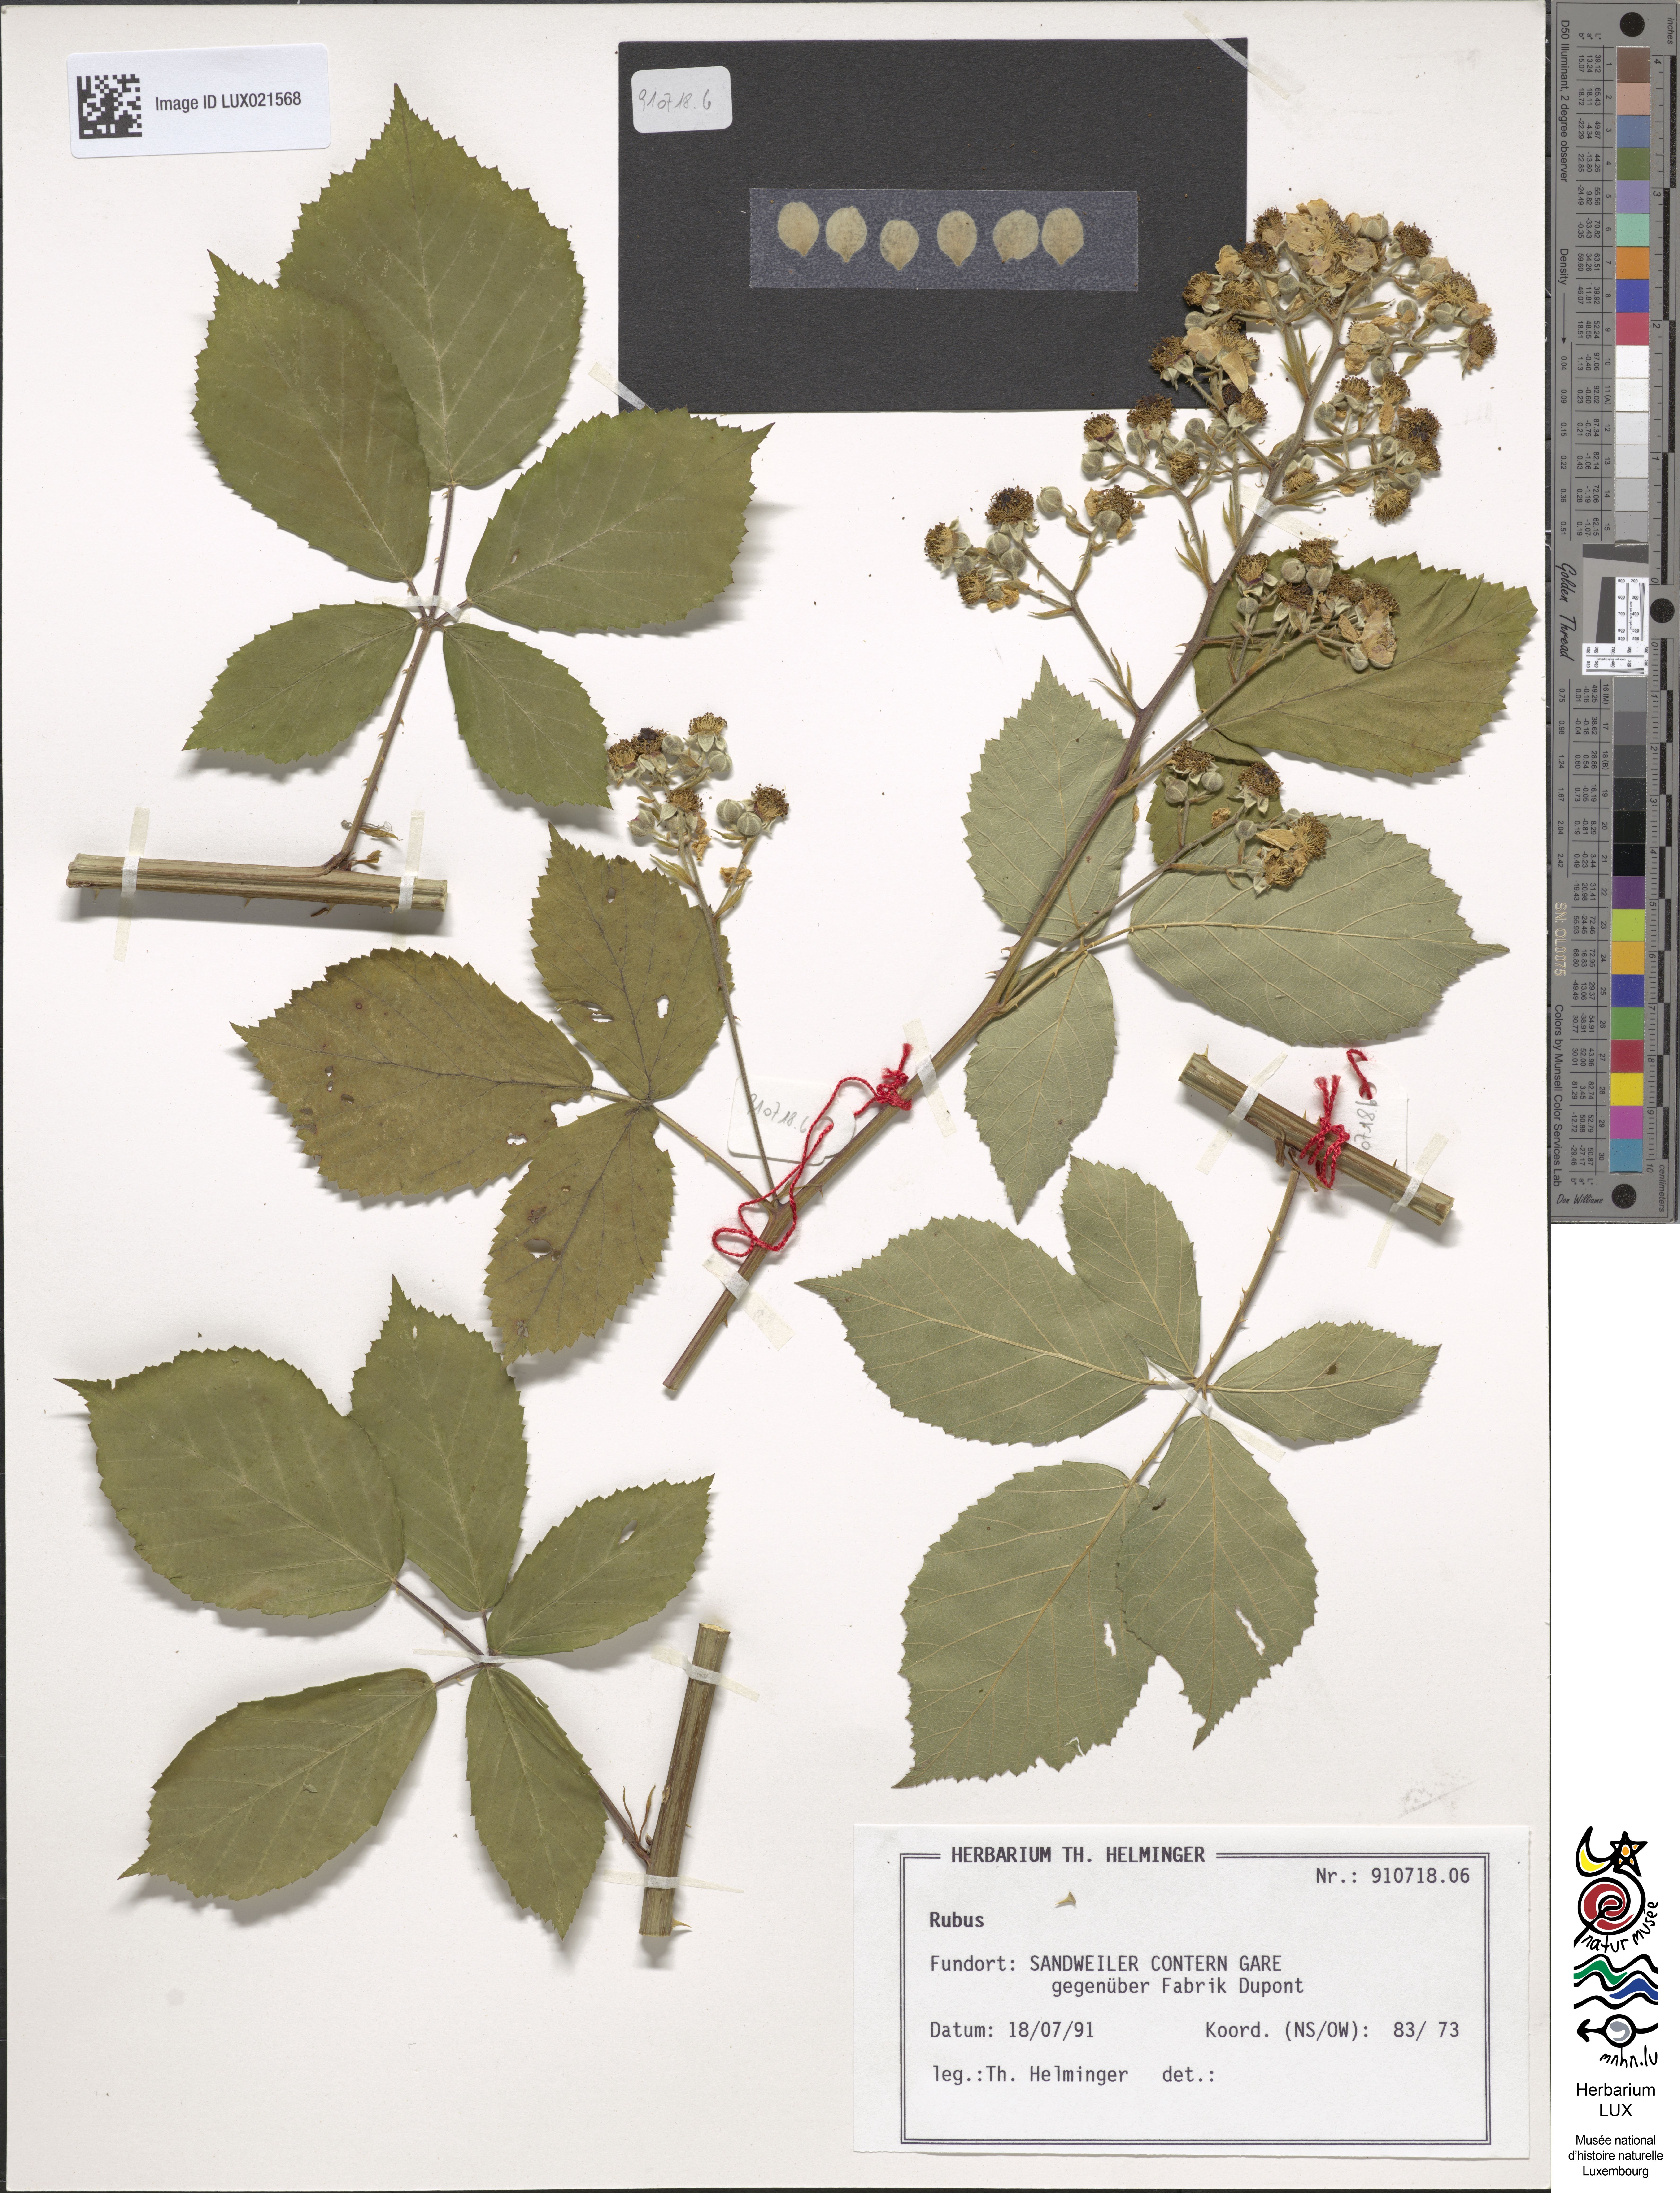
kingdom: Plantae
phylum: Tracheophyta
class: Magnoliopsida
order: Rosales
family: Rosaceae
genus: Rubus
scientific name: Rubus
